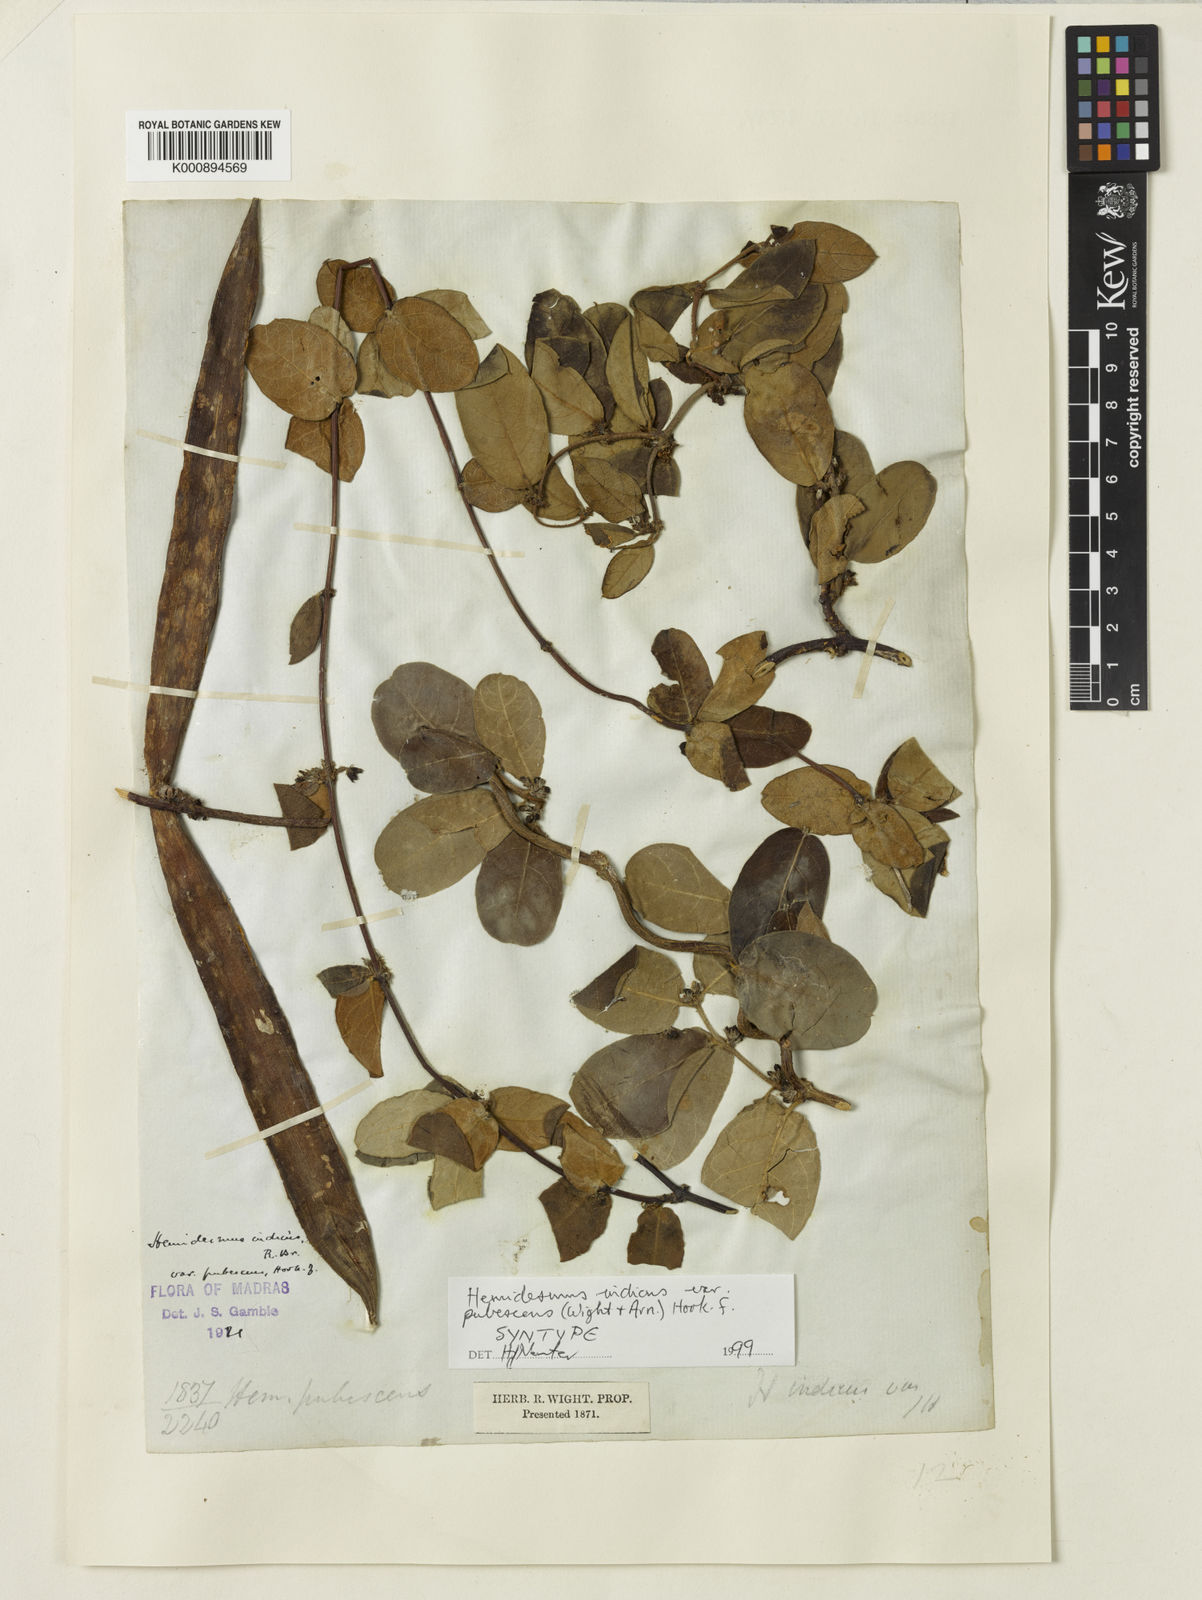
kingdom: Plantae
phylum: Tracheophyta
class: Magnoliopsida
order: Gentianales
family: Apocynaceae
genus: Hemidesmus
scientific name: Hemidesmus
